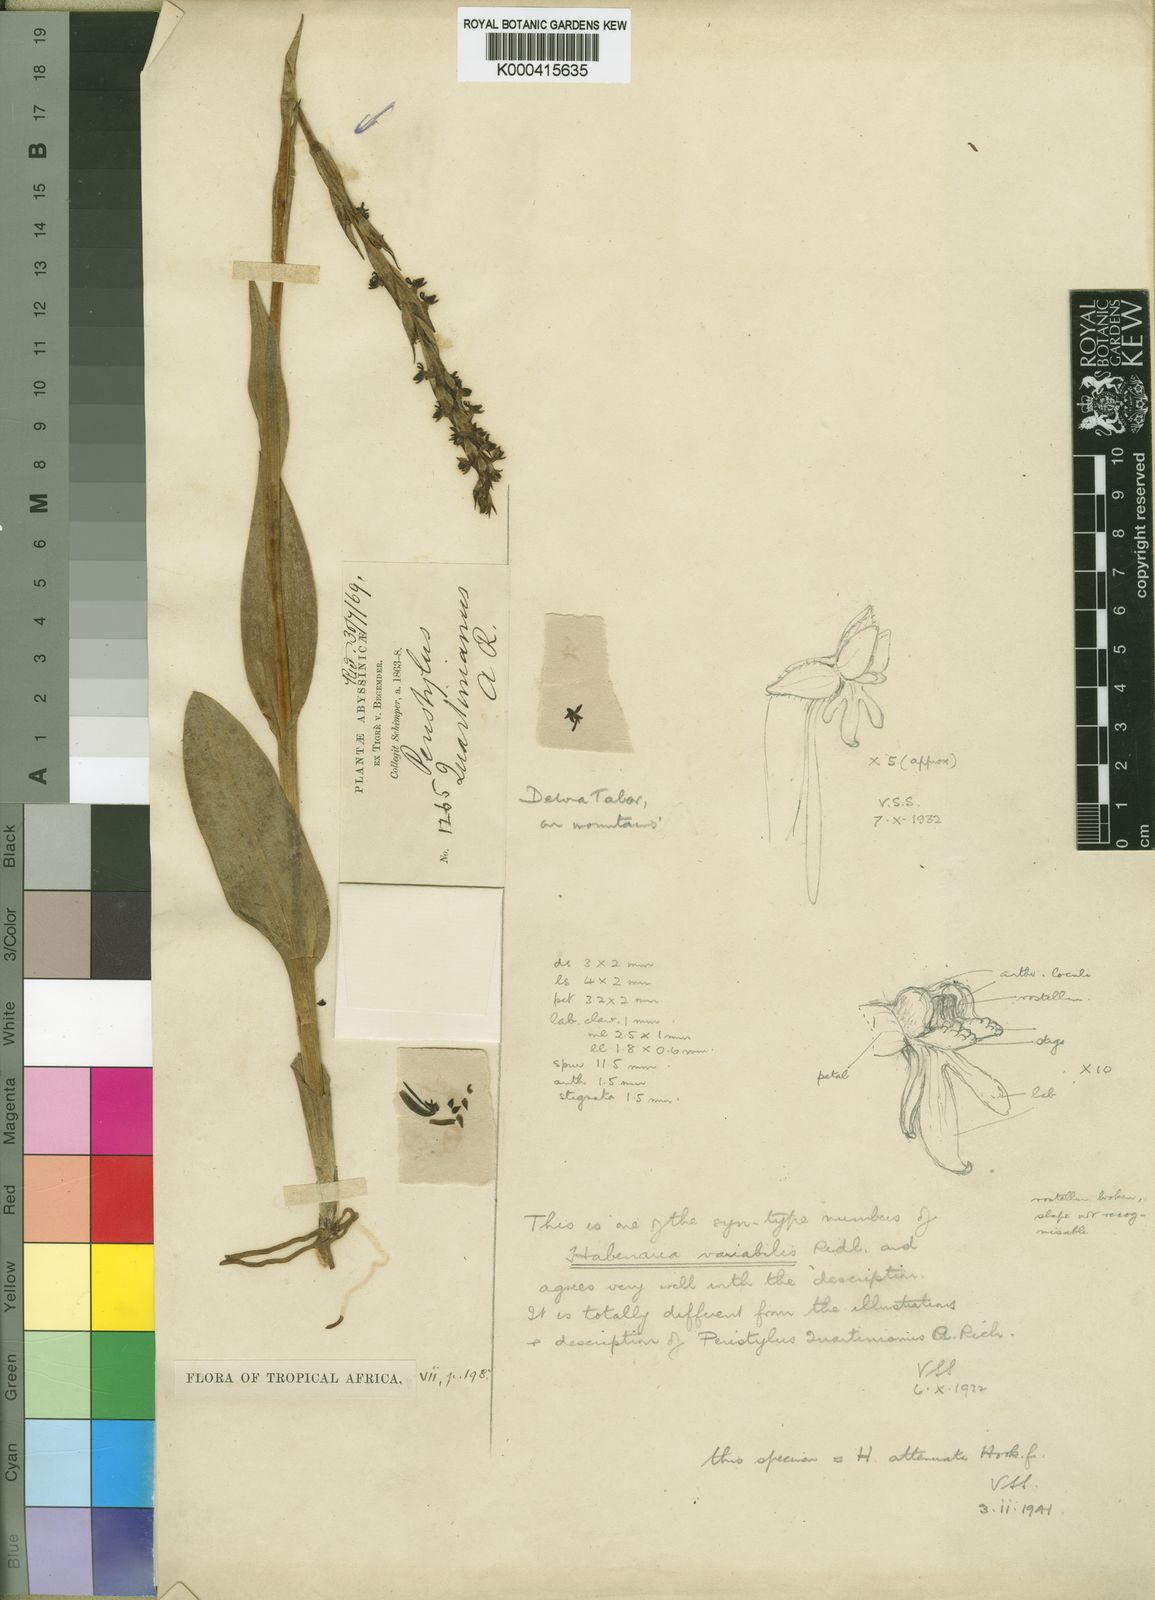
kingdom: Plantae
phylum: Tracheophyta
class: Liliopsida
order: Asparagales
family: Orchidaceae
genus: Habenaria
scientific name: Habenaria attenuata
